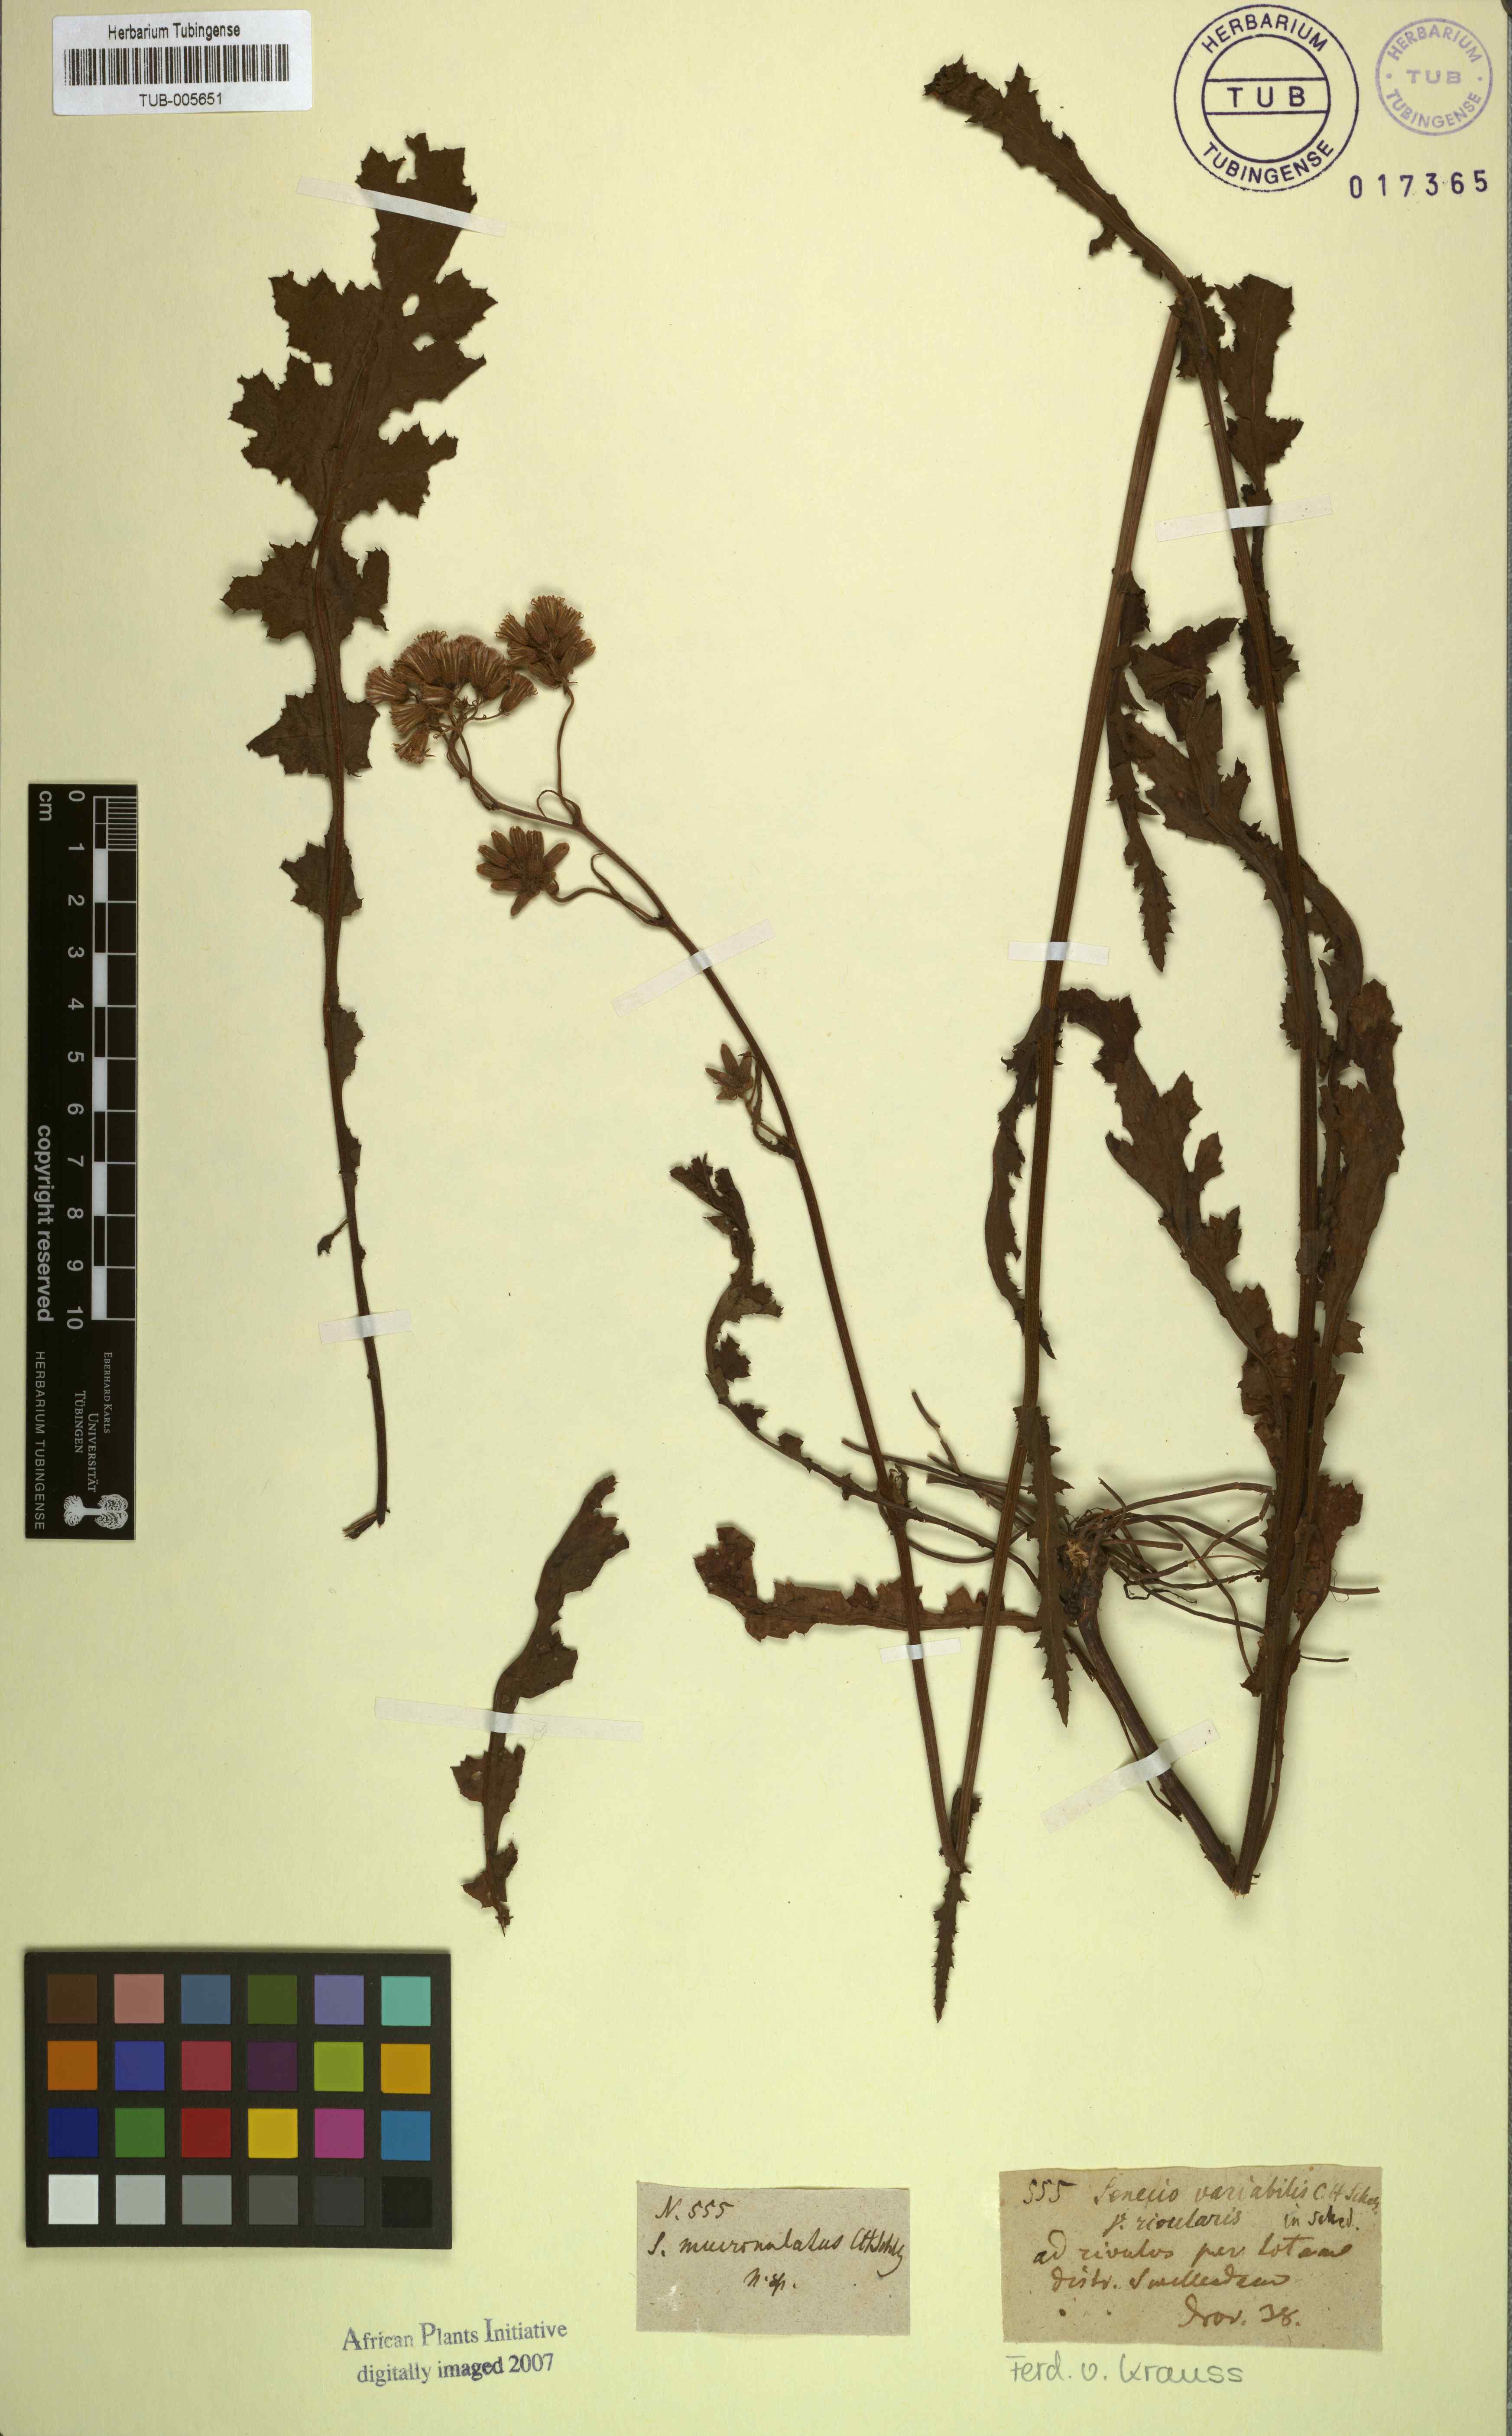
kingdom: Plantae
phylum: Tracheophyta
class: Magnoliopsida
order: Asterales
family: Asteraceae
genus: Senecio
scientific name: Senecio erubescens
